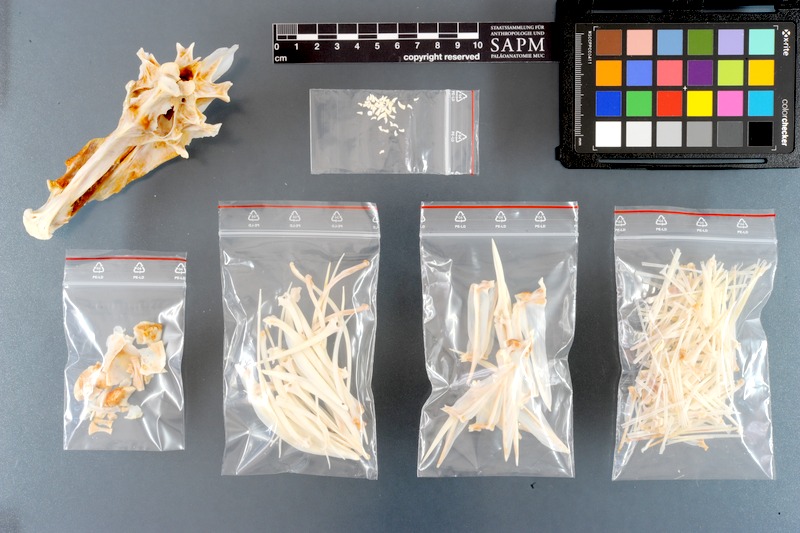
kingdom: Animalia
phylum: Chordata
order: Perciformes
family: Lutjanidae
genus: Lutjanus
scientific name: Lutjanus sebae
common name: Emperor red snapper
